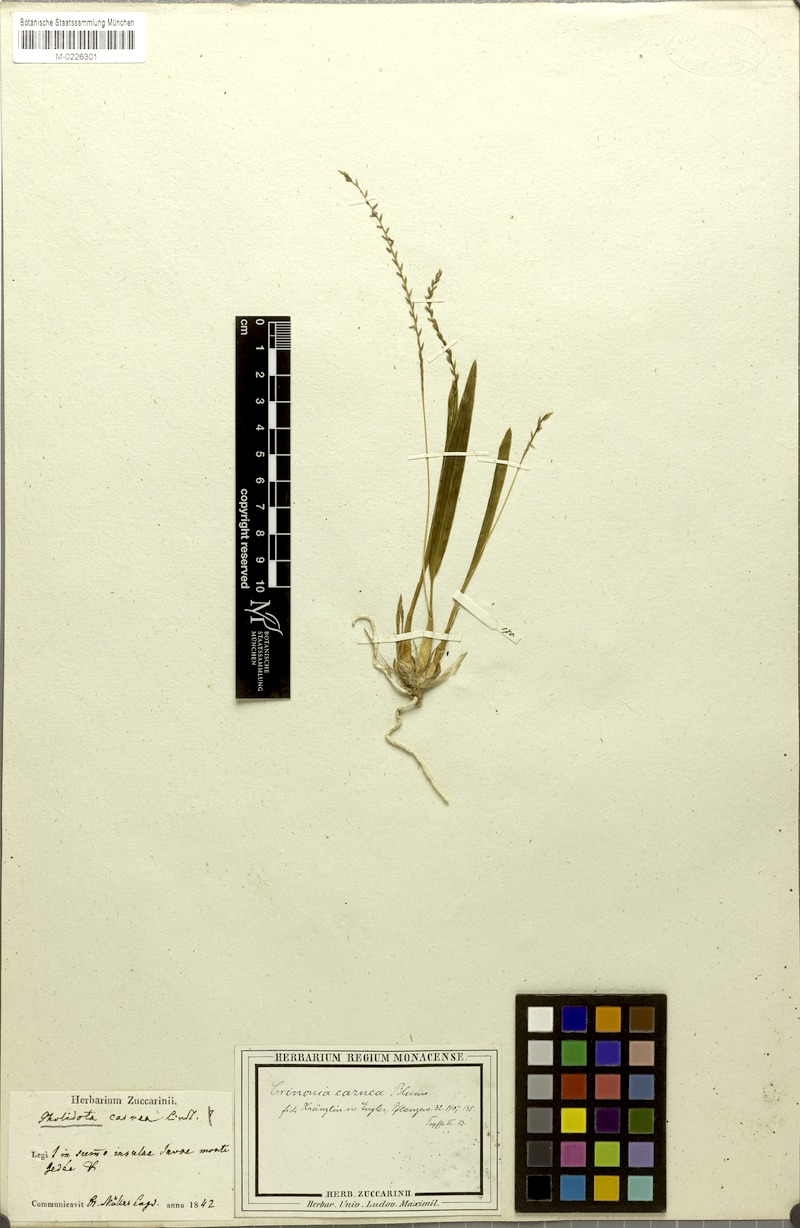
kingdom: Plantae
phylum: Tracheophyta
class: Liliopsida
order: Asparagales
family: Orchidaceae
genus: Coelogyne
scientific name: Coelogyne carnea
